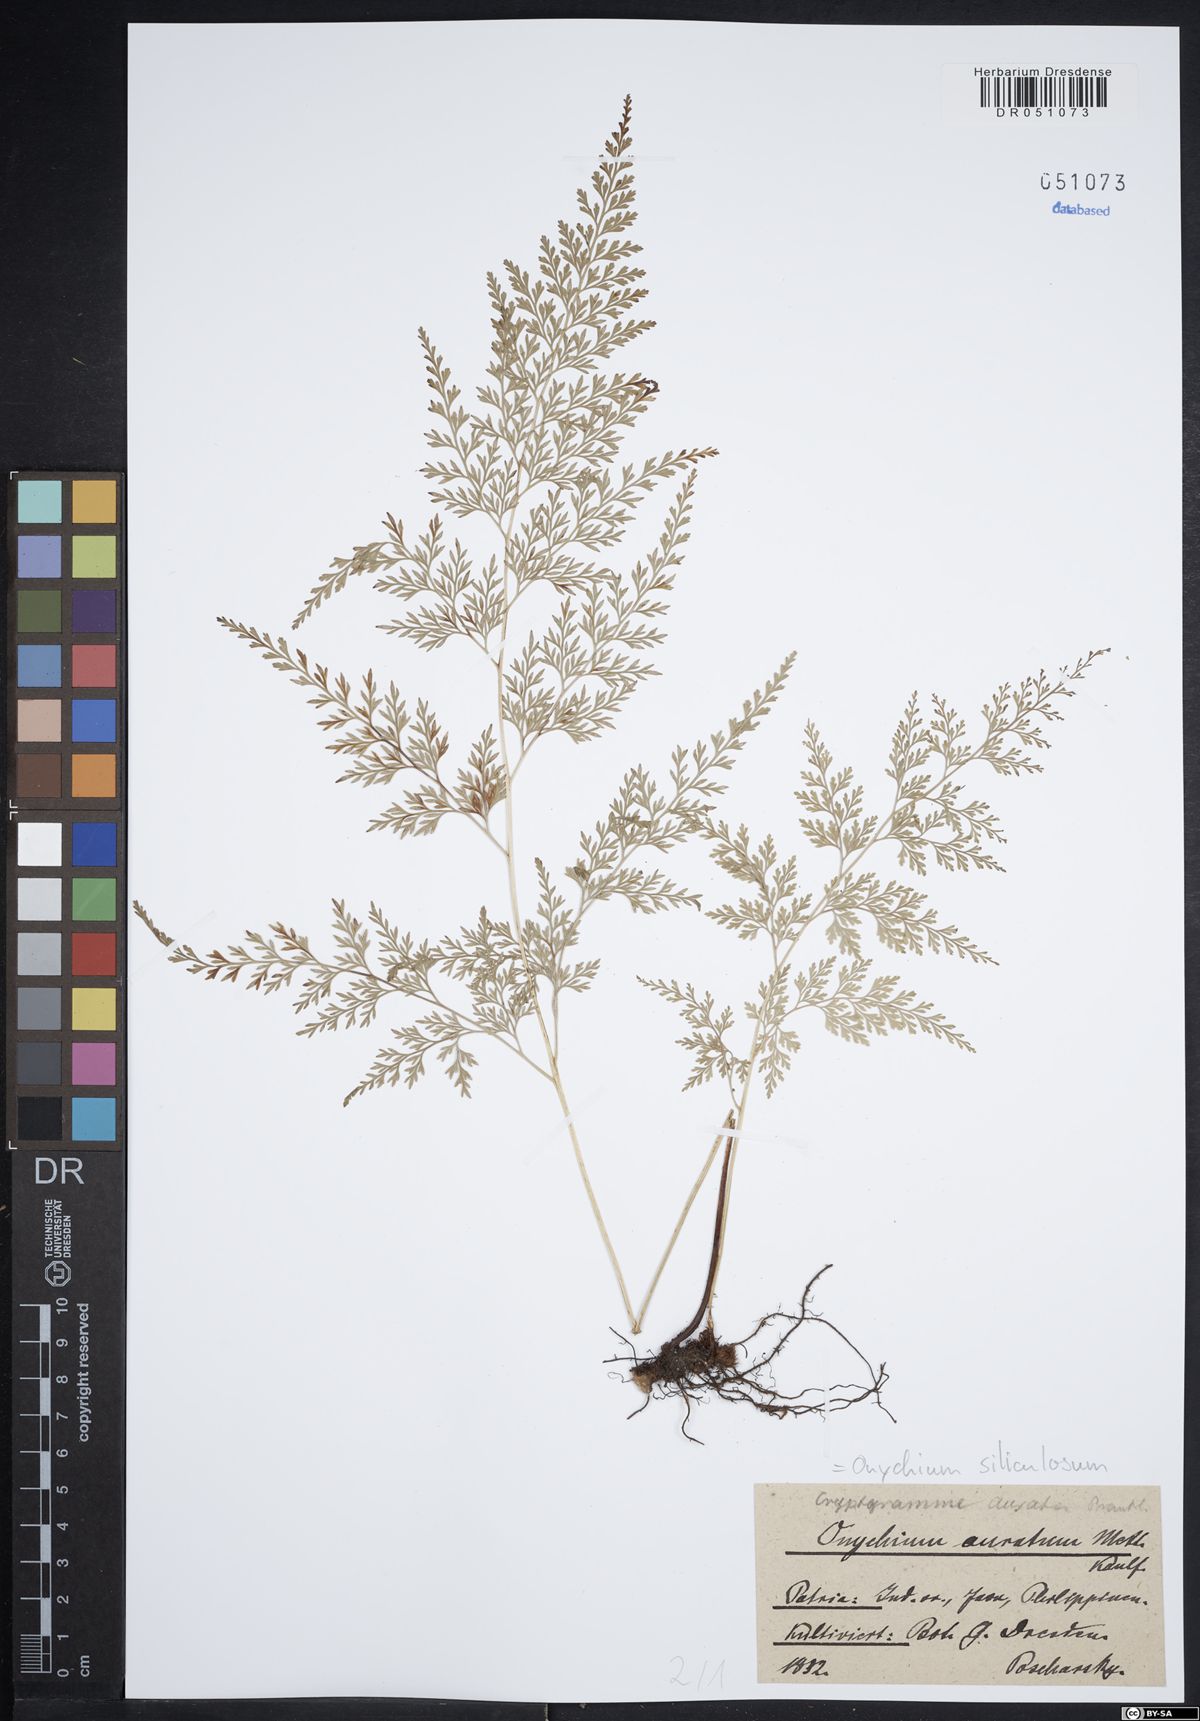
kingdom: Plantae
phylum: Tracheophyta
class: Polypodiopsida
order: Polypodiales
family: Pteridaceae
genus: Onychium
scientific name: Onychium siliculosum
